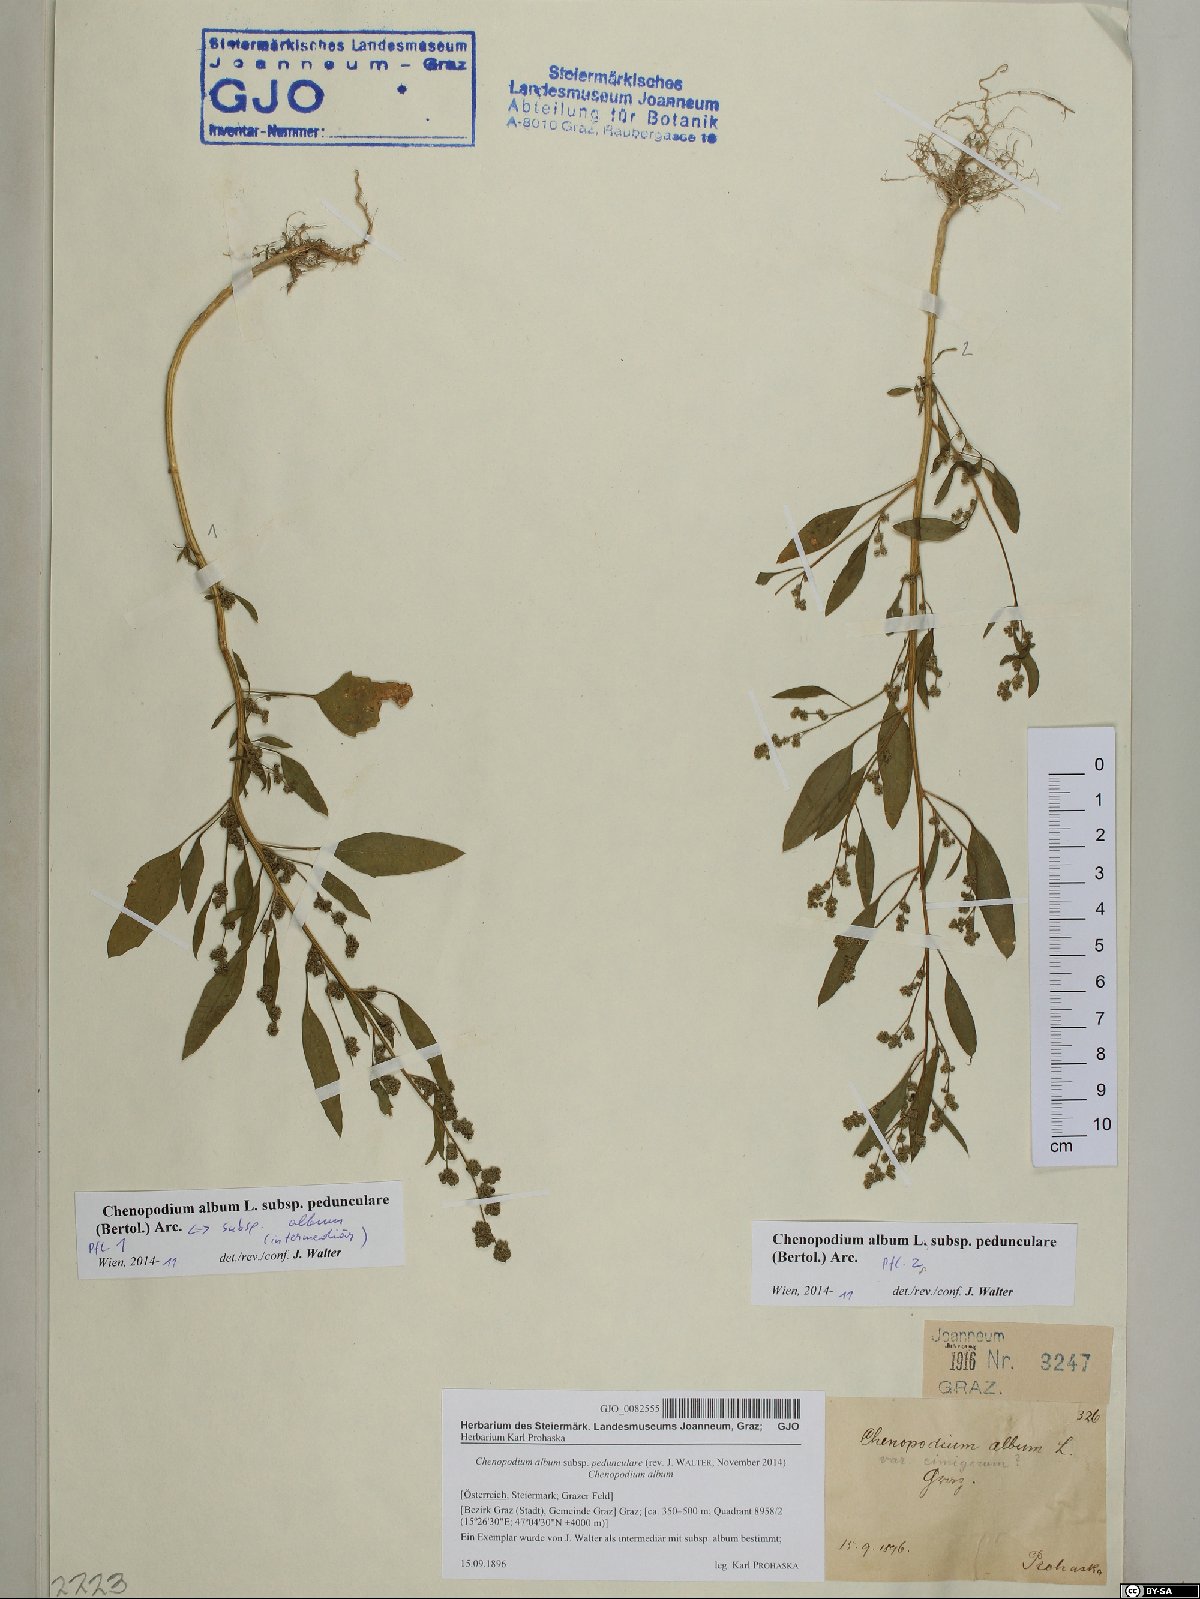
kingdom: Plantae
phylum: Tracheophyta
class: Magnoliopsida
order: Caryophyllales
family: Amaranthaceae
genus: Chenopodium
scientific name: Chenopodium album
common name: Fat-hen
